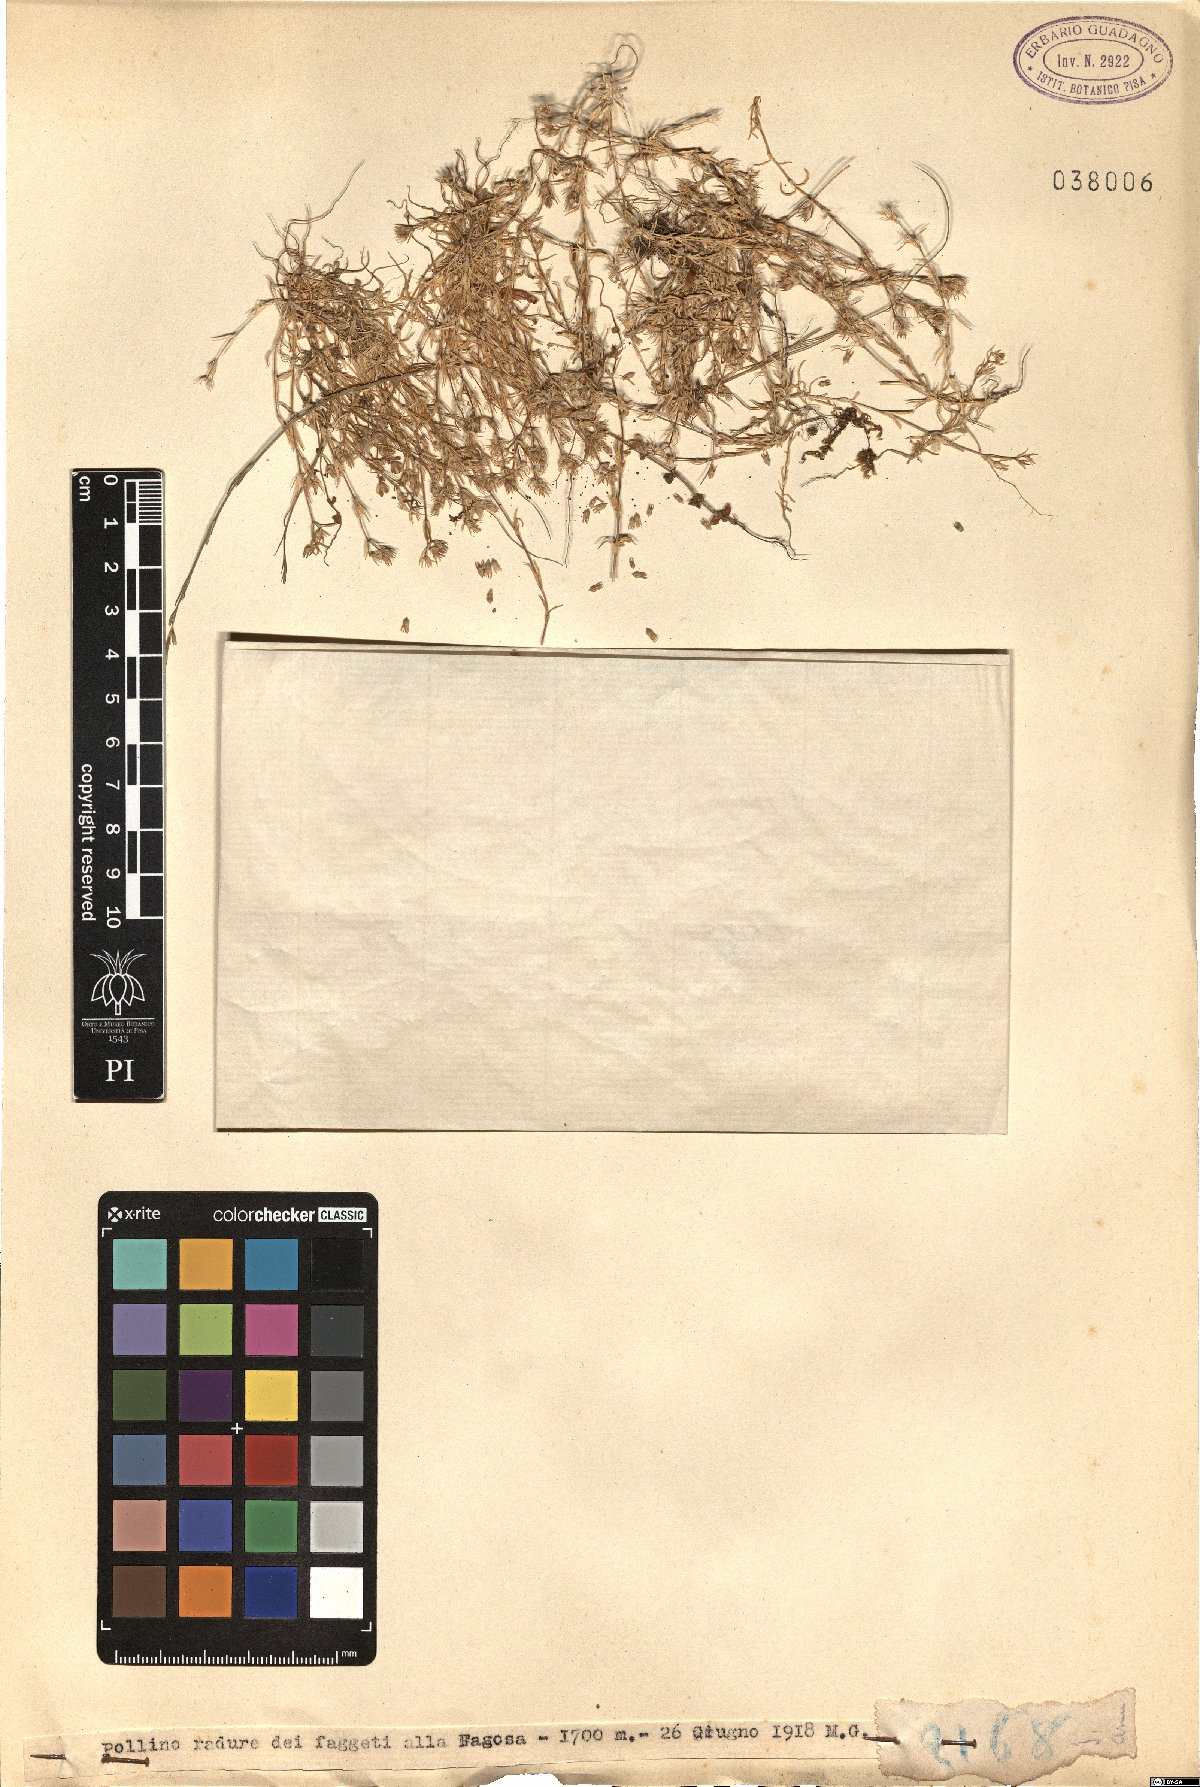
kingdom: Plantae
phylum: Tracheophyta
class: Magnoliopsida
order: Caryophyllales
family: Caryophyllaceae
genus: Scleranthus
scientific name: Scleranthus
